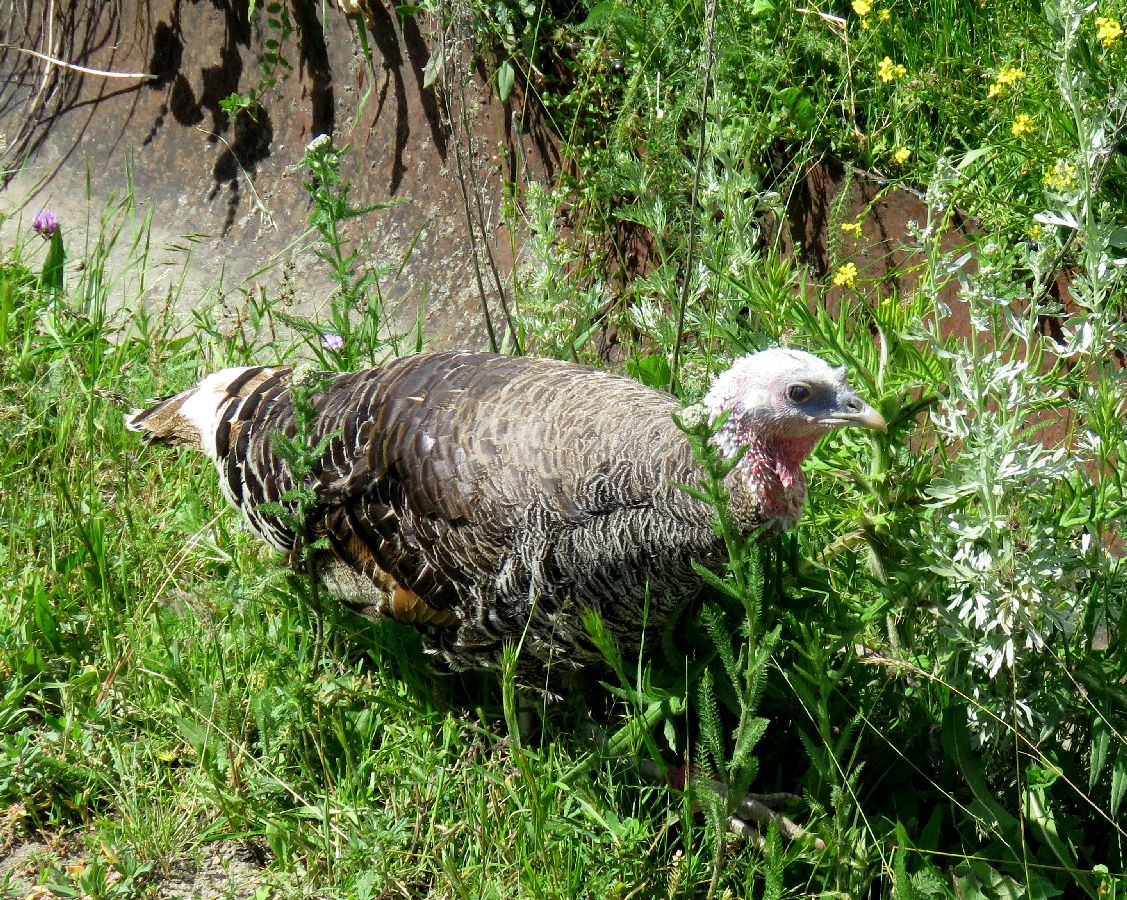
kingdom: Animalia
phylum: Chordata
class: Aves
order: Galliformes
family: Phasianidae
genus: Meleagris
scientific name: Meleagris gallopavo
